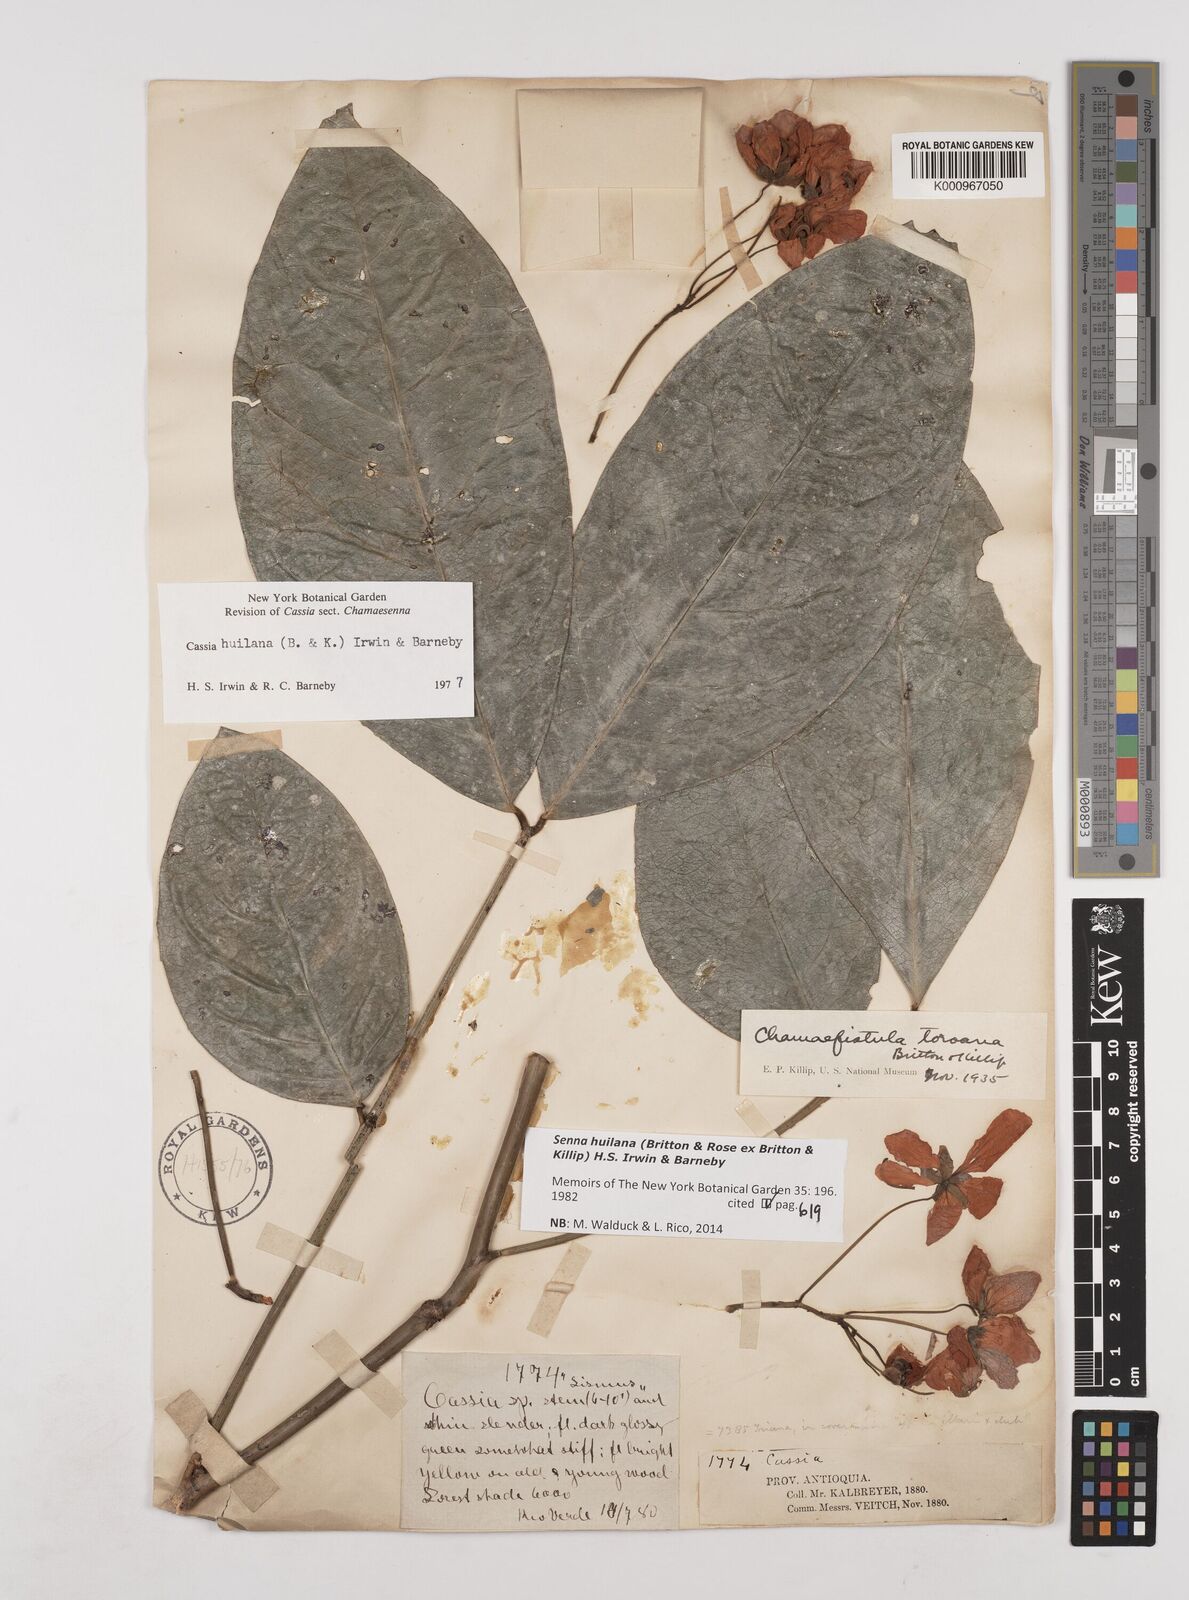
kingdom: Plantae
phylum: Tracheophyta
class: Magnoliopsida
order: Fabales
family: Fabaceae
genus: Senna
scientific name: Senna huilana
